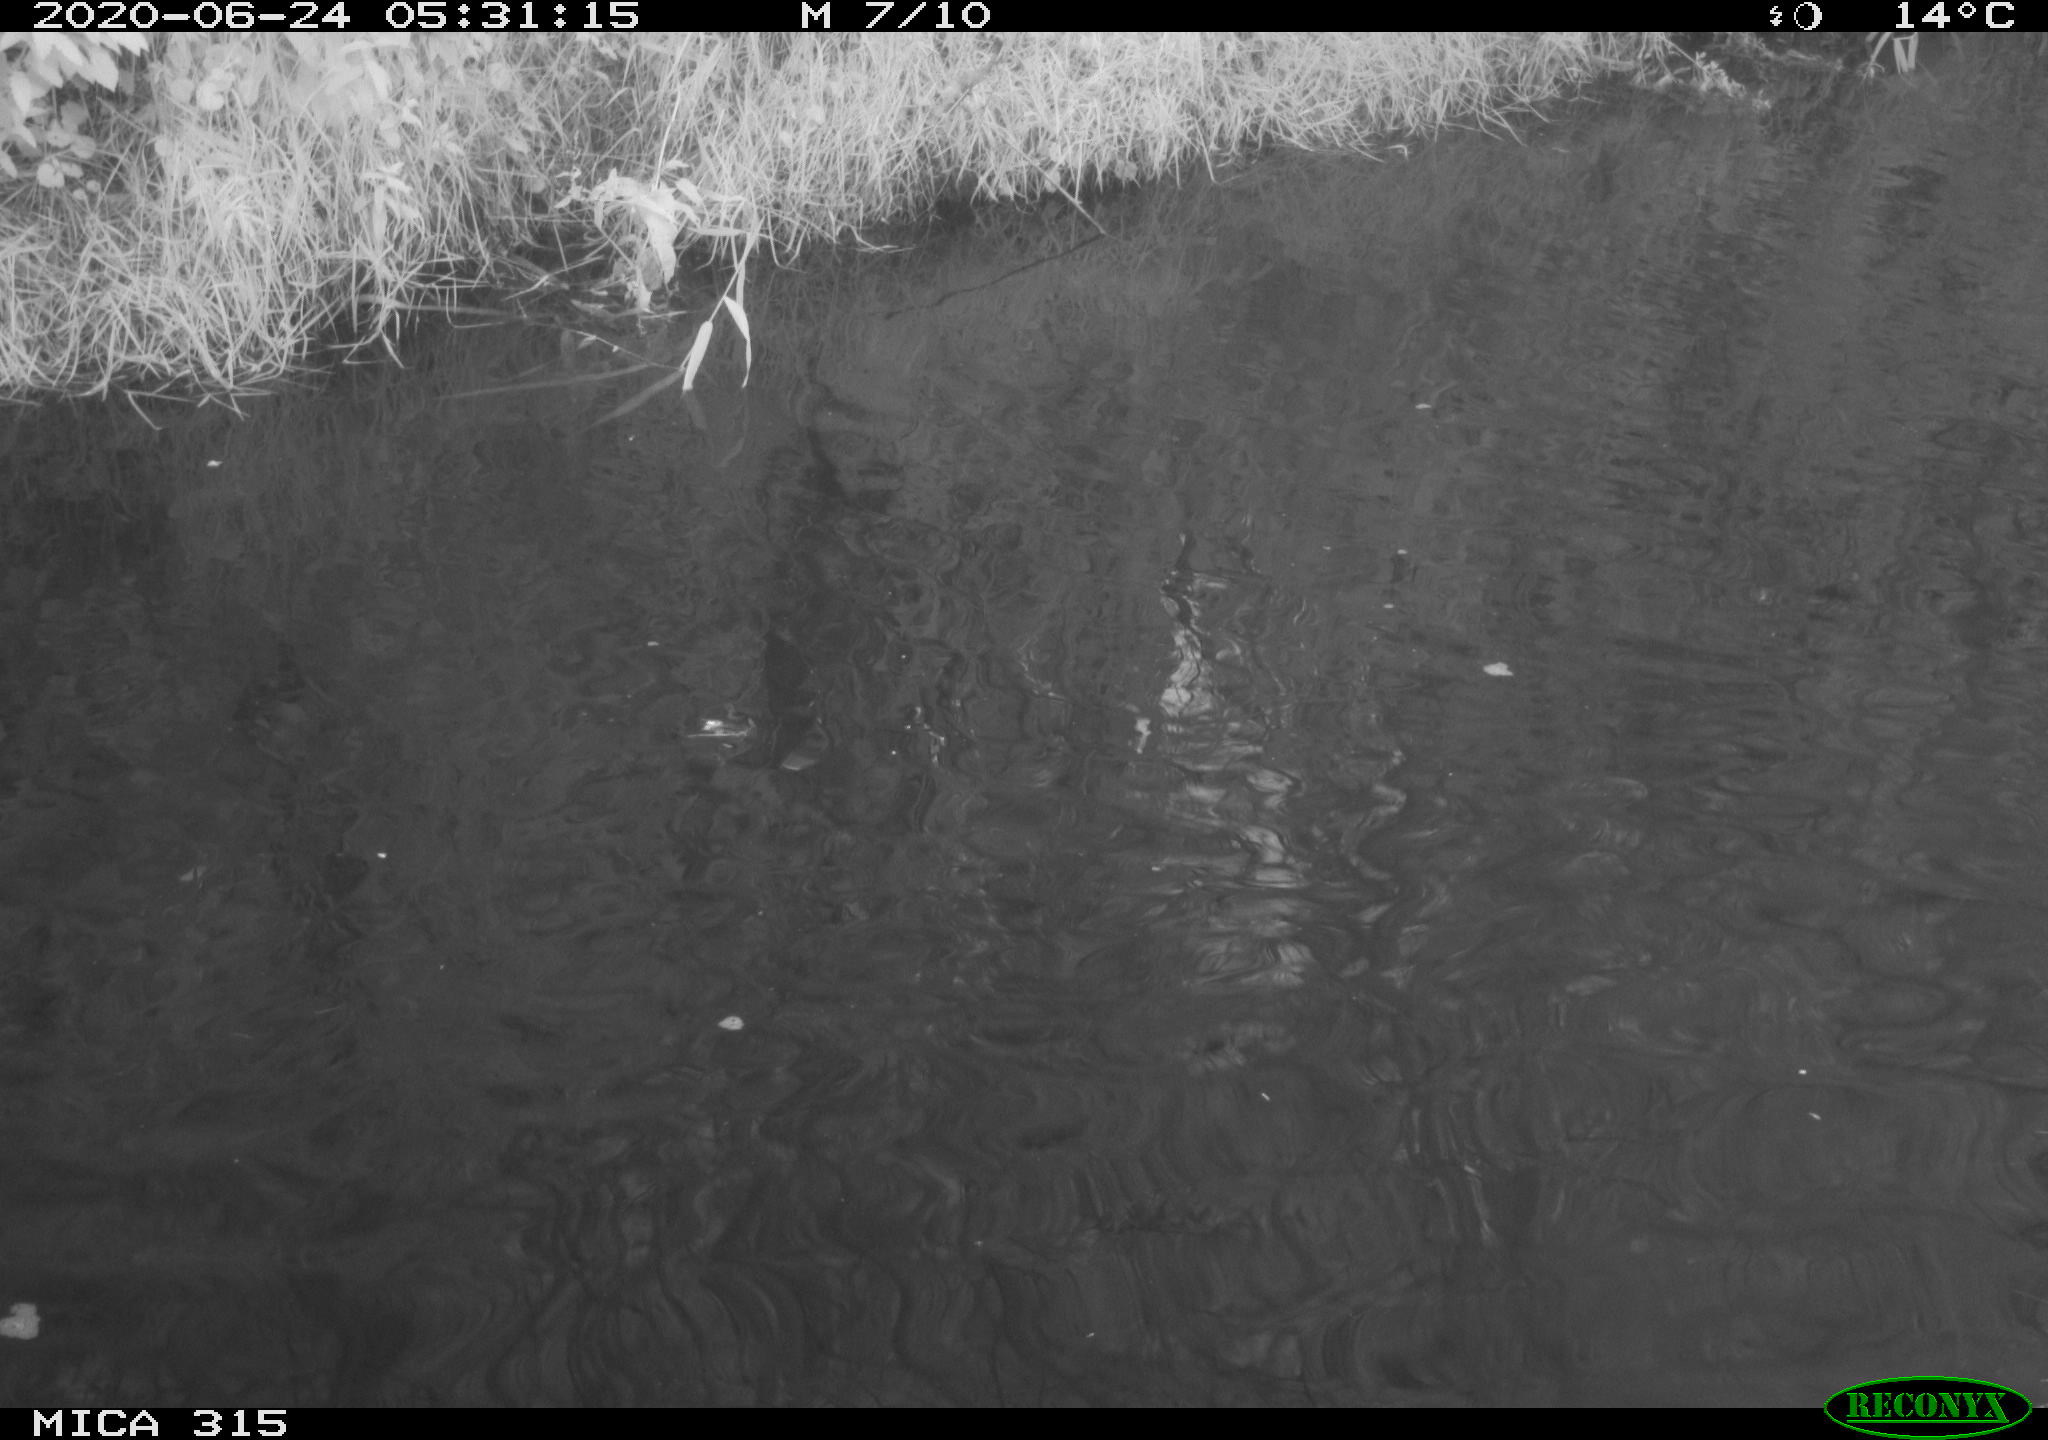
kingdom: Animalia
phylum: Chordata
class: Aves
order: Anseriformes
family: Anatidae
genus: Anas
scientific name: Anas platyrhynchos
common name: Mallard
